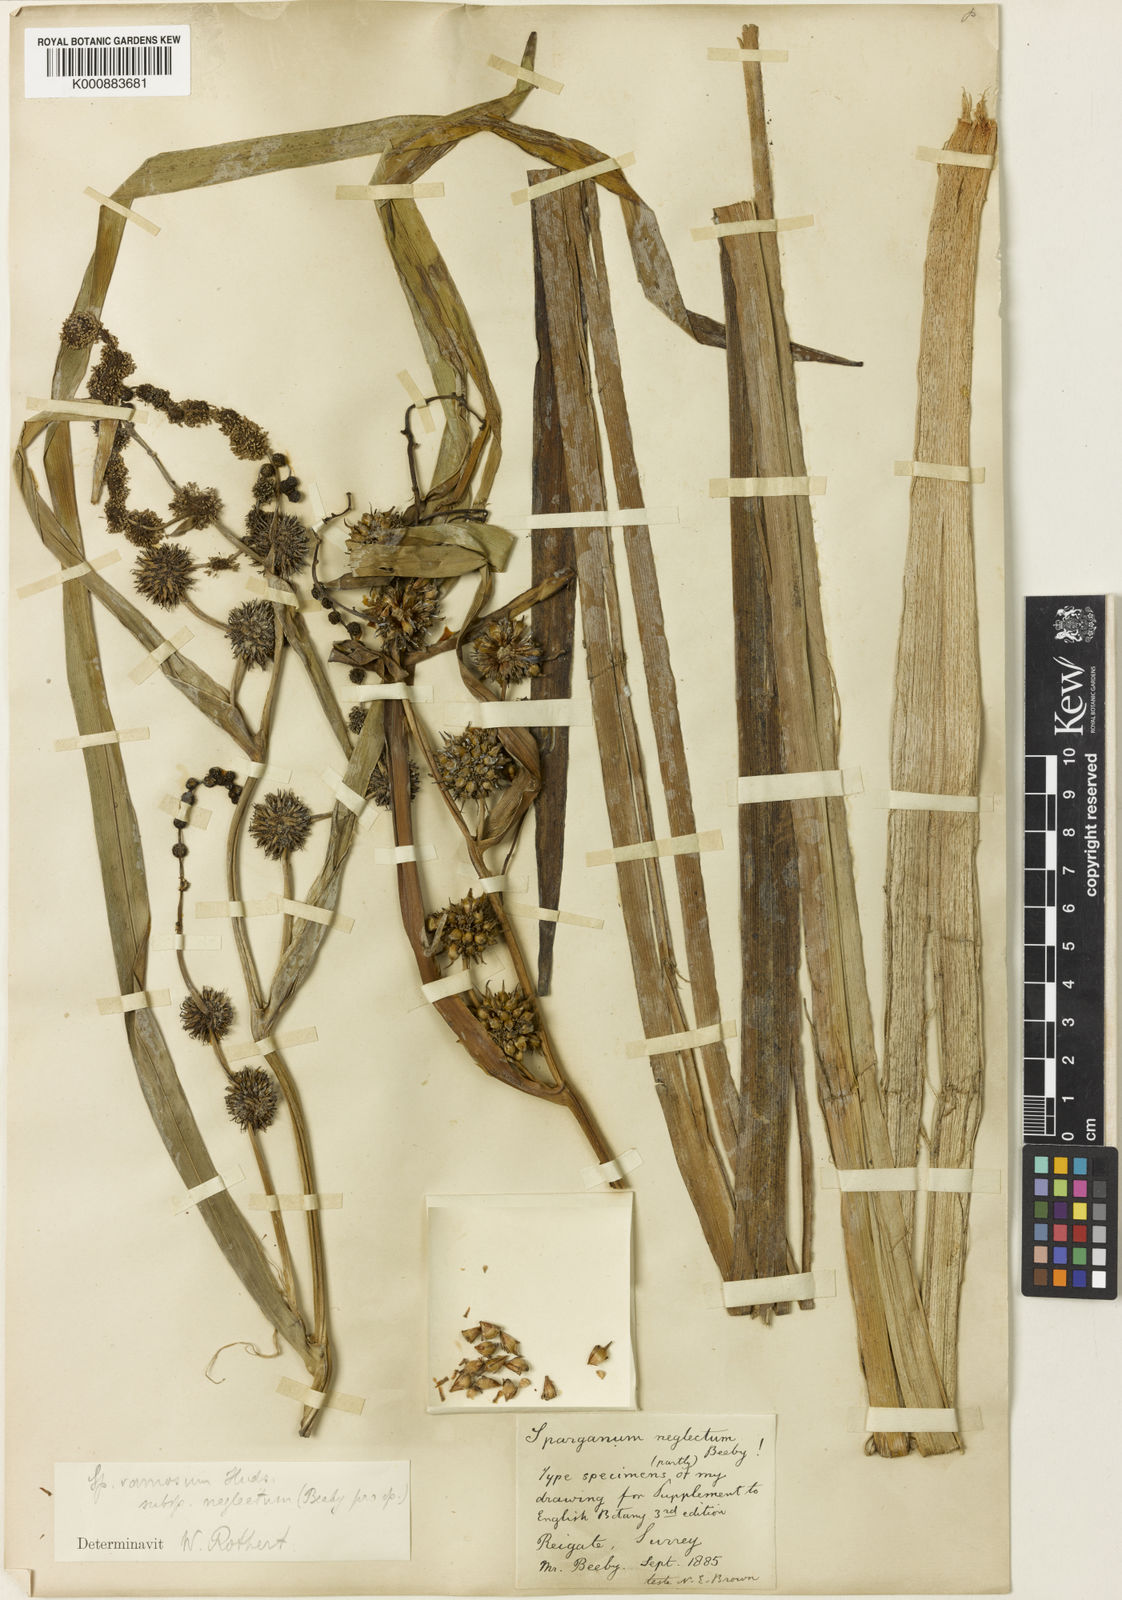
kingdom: Plantae
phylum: Tracheophyta
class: Liliopsida
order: Poales
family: Typhaceae
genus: Sparganium
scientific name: Sparganium erectum
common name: Branched bur-reed
